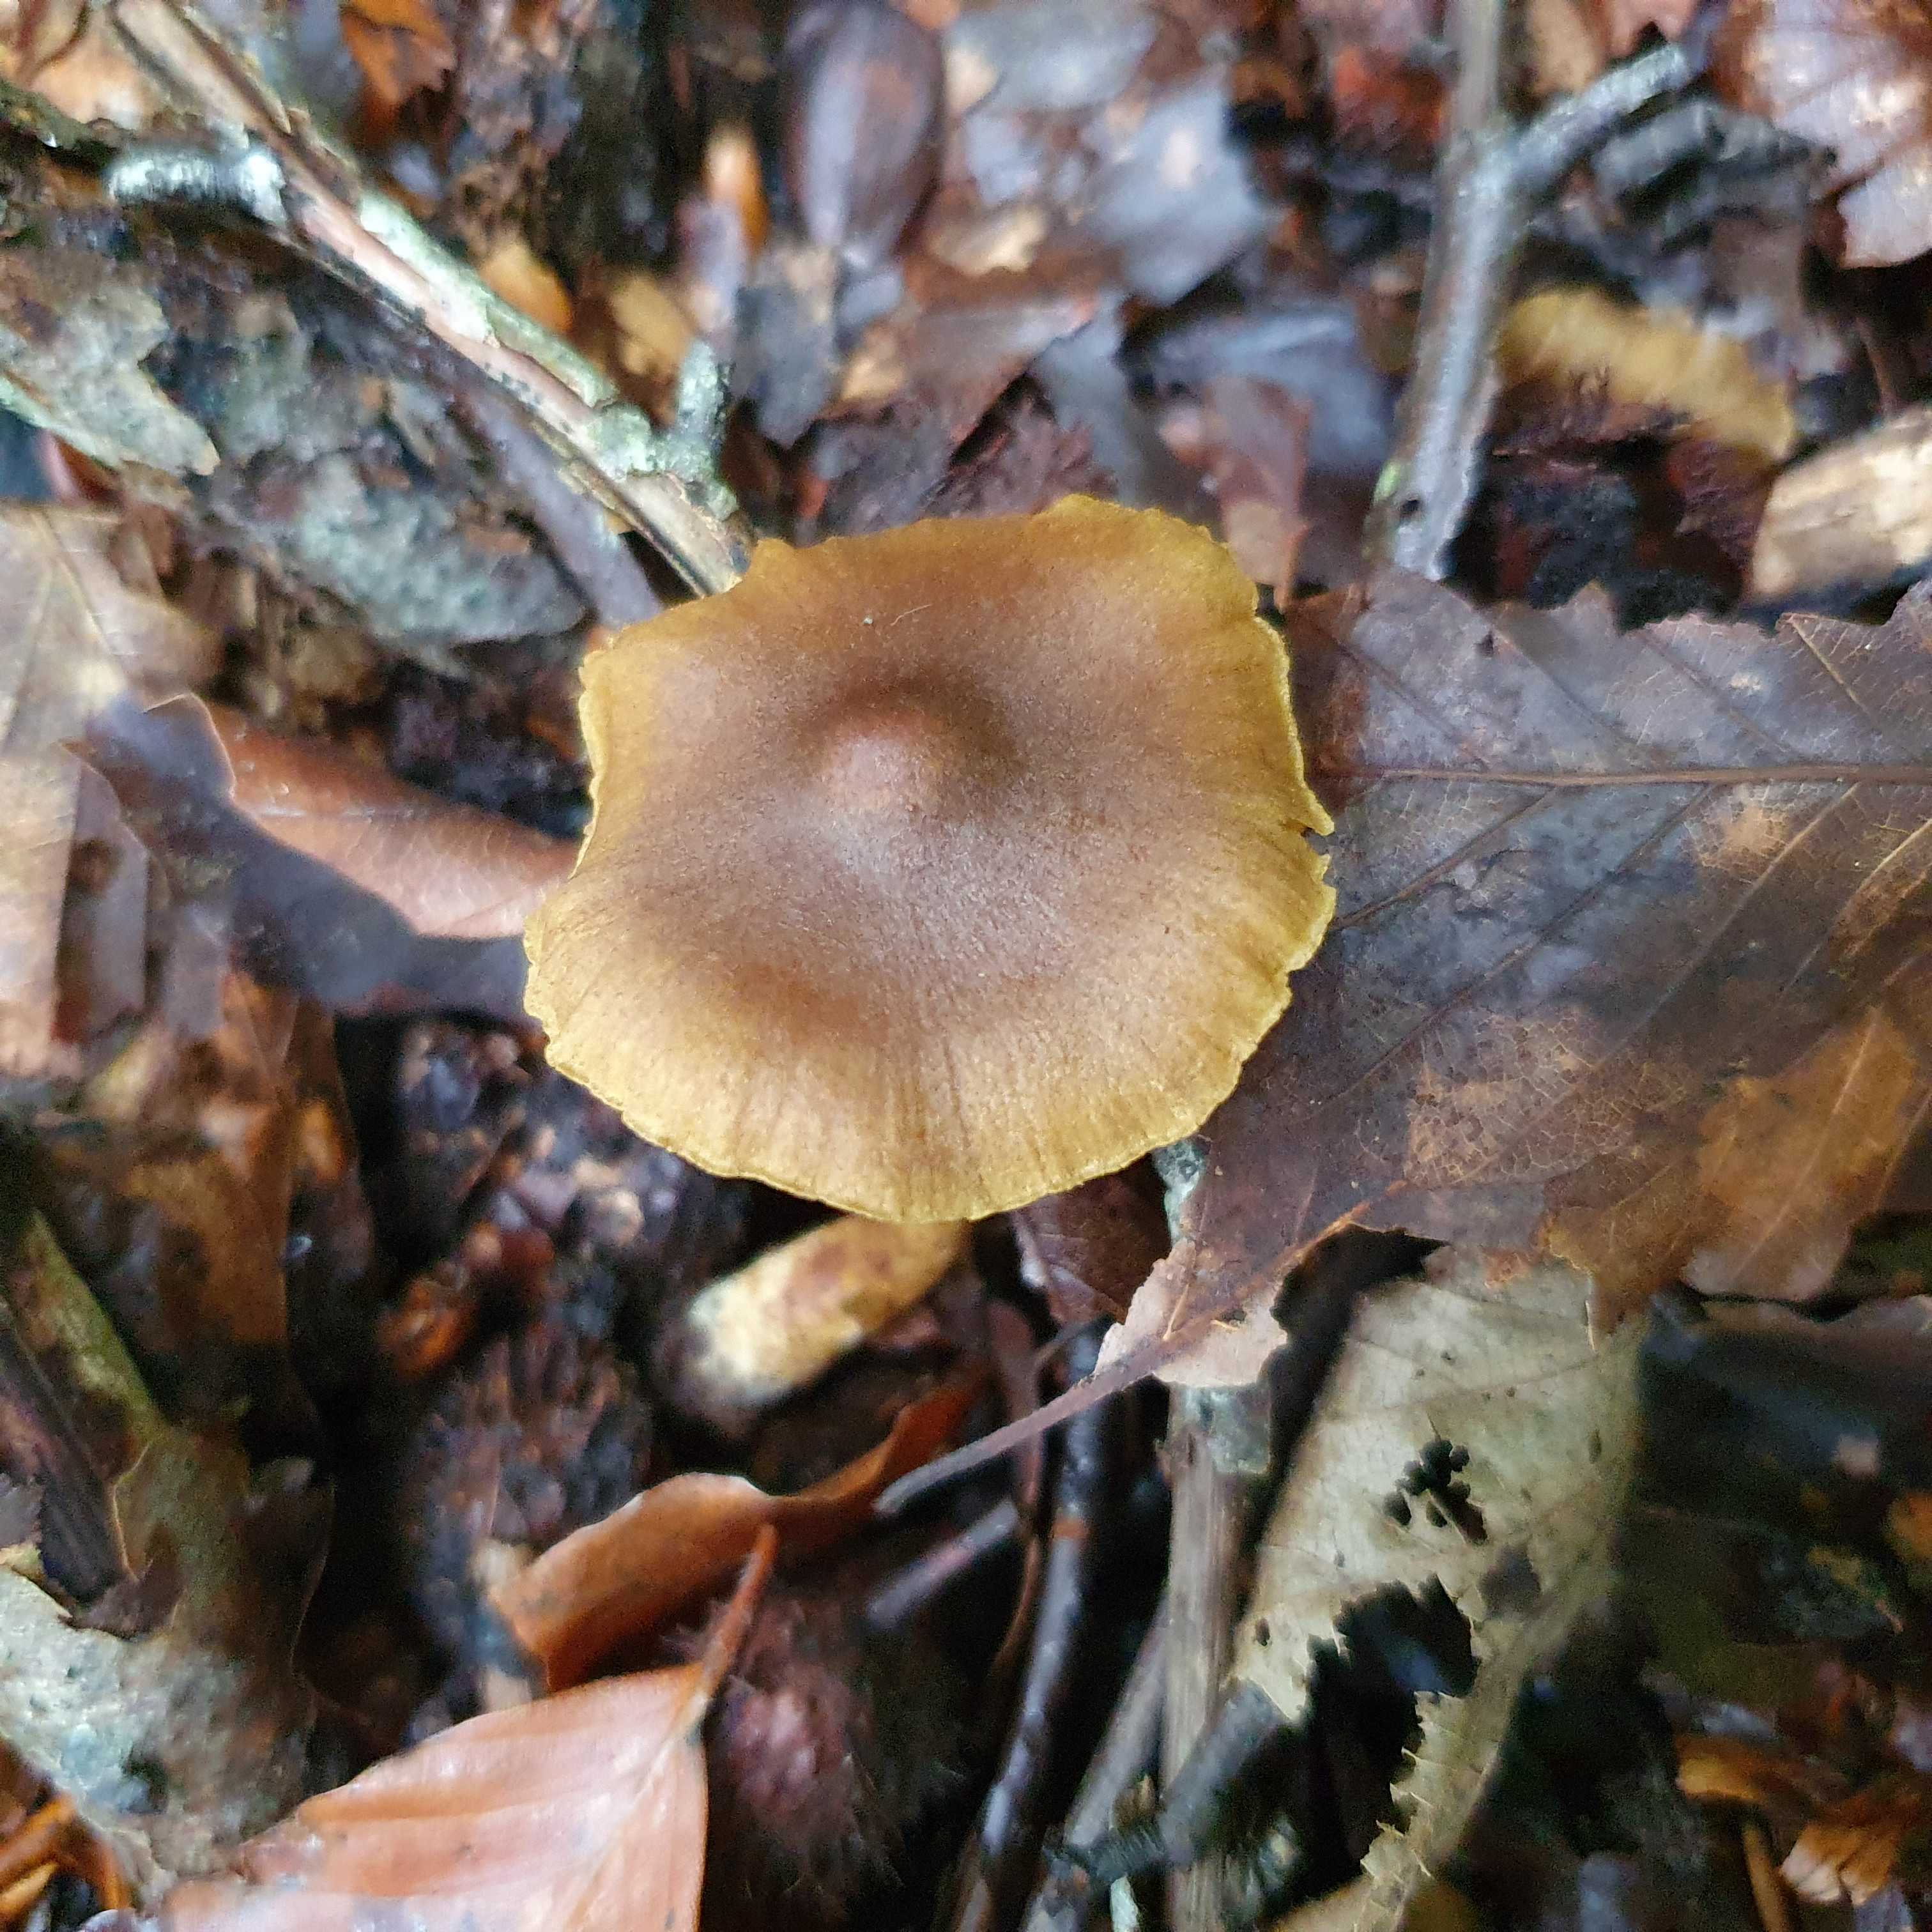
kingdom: Fungi
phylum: Basidiomycota
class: Agaricomycetes
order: Agaricales
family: Cortinariaceae
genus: Cortinarius
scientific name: Cortinarius olivaceofuscus
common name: olivenbrun slørhat
